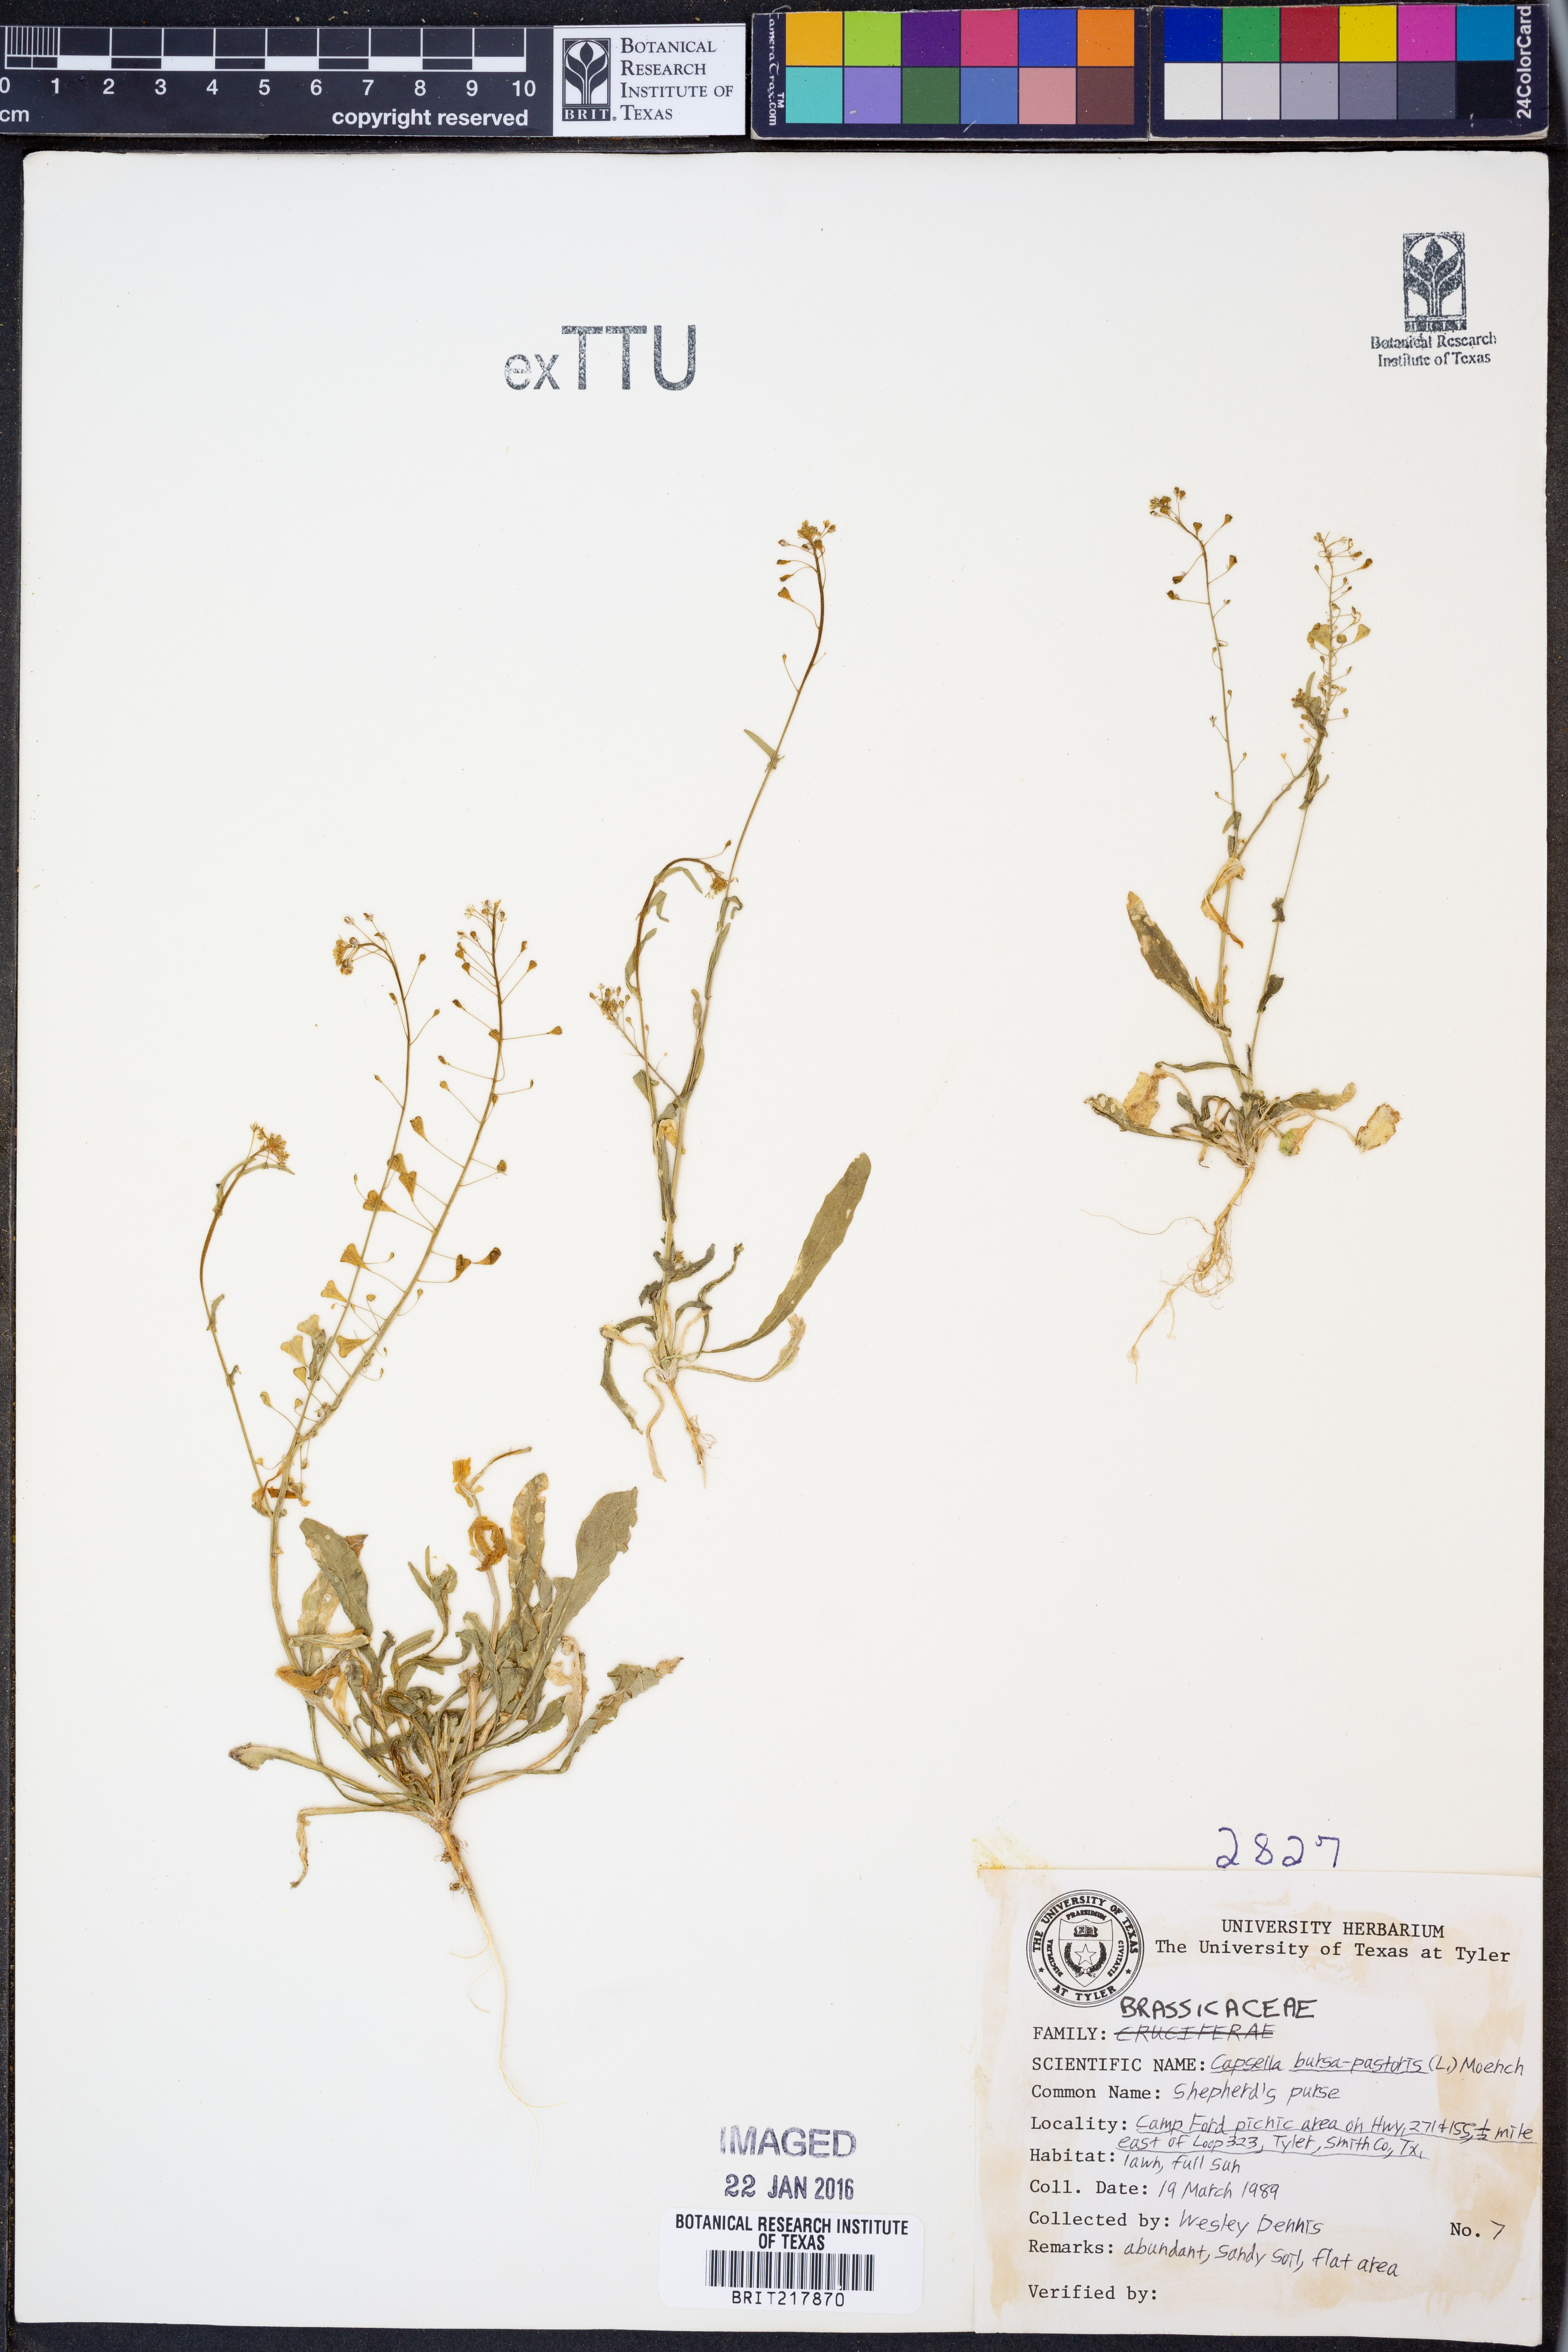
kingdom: Plantae
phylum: Tracheophyta
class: Magnoliopsida
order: Brassicales
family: Brassicaceae
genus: Capsella
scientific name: Capsella bursa-pastoris
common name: Shepherd's purse
